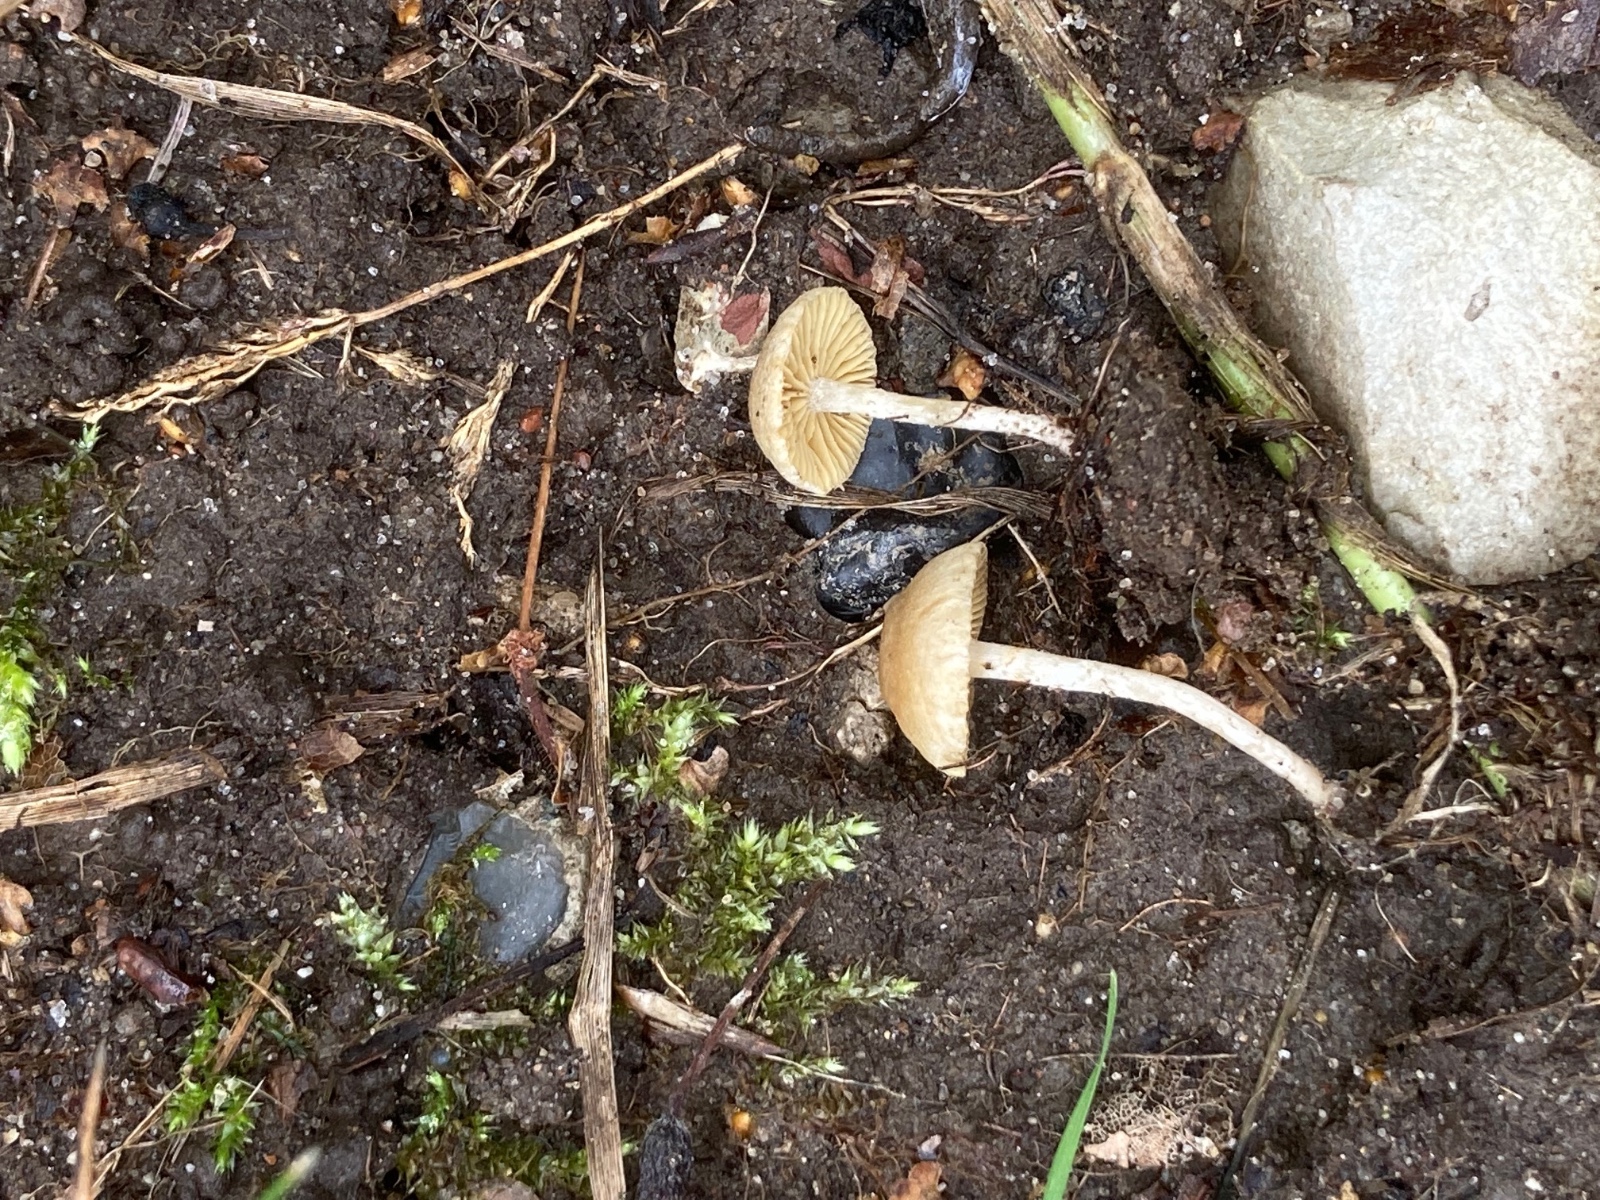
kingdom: Fungi
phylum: Basidiomycota
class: Agaricomycetes
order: Agaricales
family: Tubariaceae
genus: Tubaria
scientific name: Tubaria dispersa
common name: tjørne-fnughat
